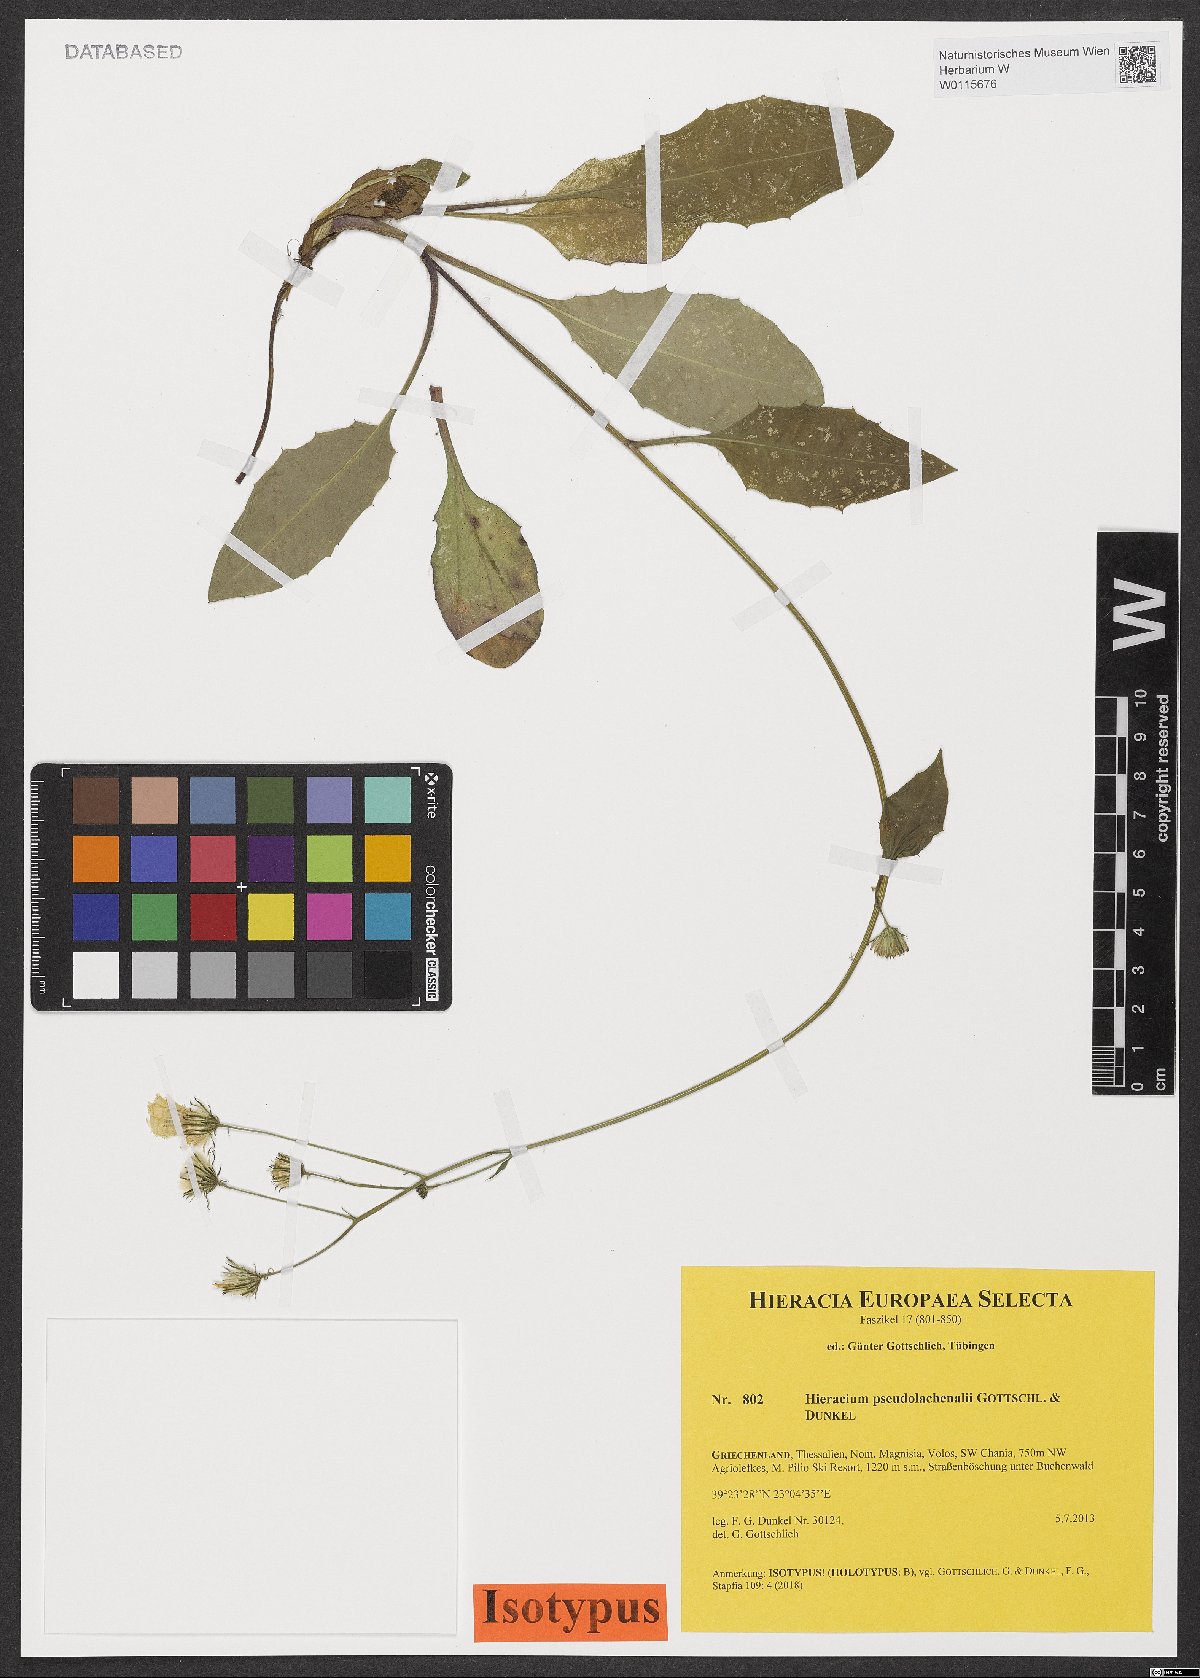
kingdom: Plantae
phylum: Tracheophyta
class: Magnoliopsida
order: Asterales
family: Asteraceae
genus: Hieracium
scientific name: Hieracium pseudolachenalii
